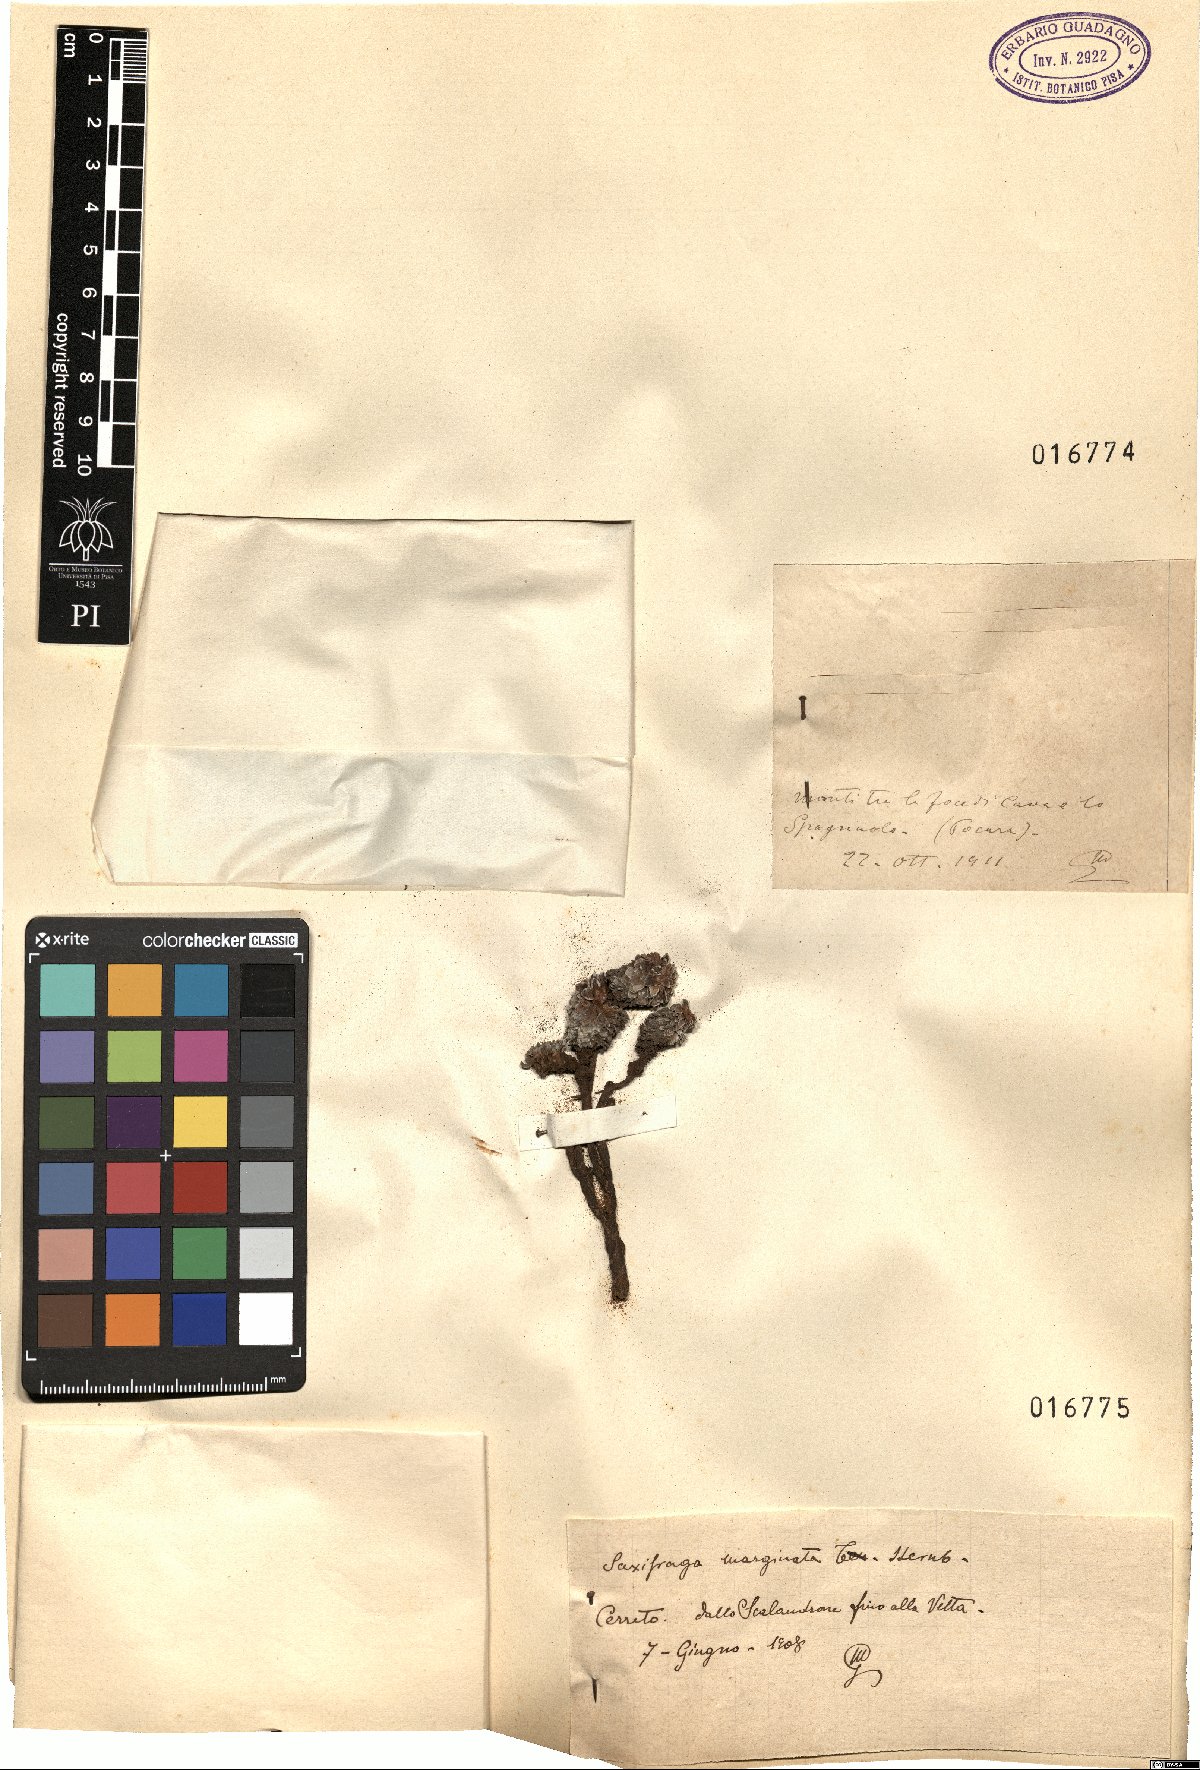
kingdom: Plantae
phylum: Tracheophyta
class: Magnoliopsida
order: Saxifragales
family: Saxifragaceae
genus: Saxifraga
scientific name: Saxifraga marginata
